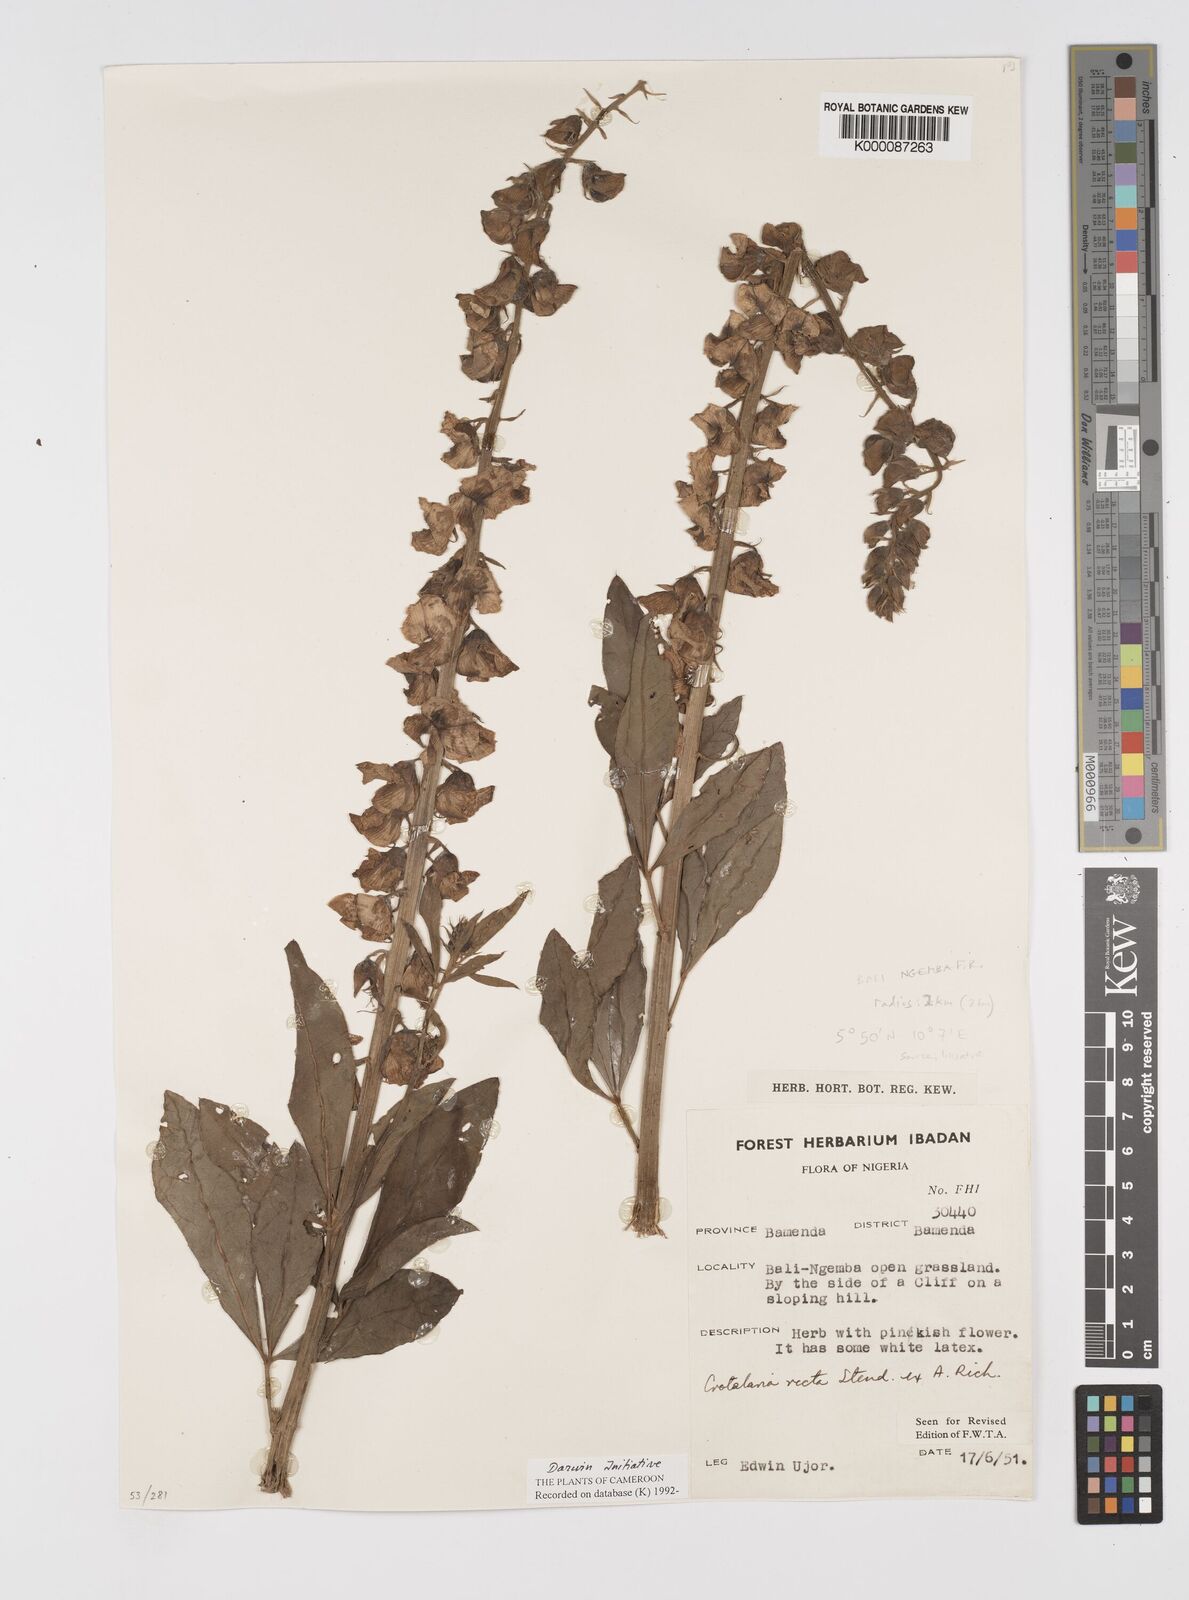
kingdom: Plantae
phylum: Tracheophyta
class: Magnoliopsida
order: Fabales
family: Fabaceae
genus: Crotalaria
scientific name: Crotalaria recta
